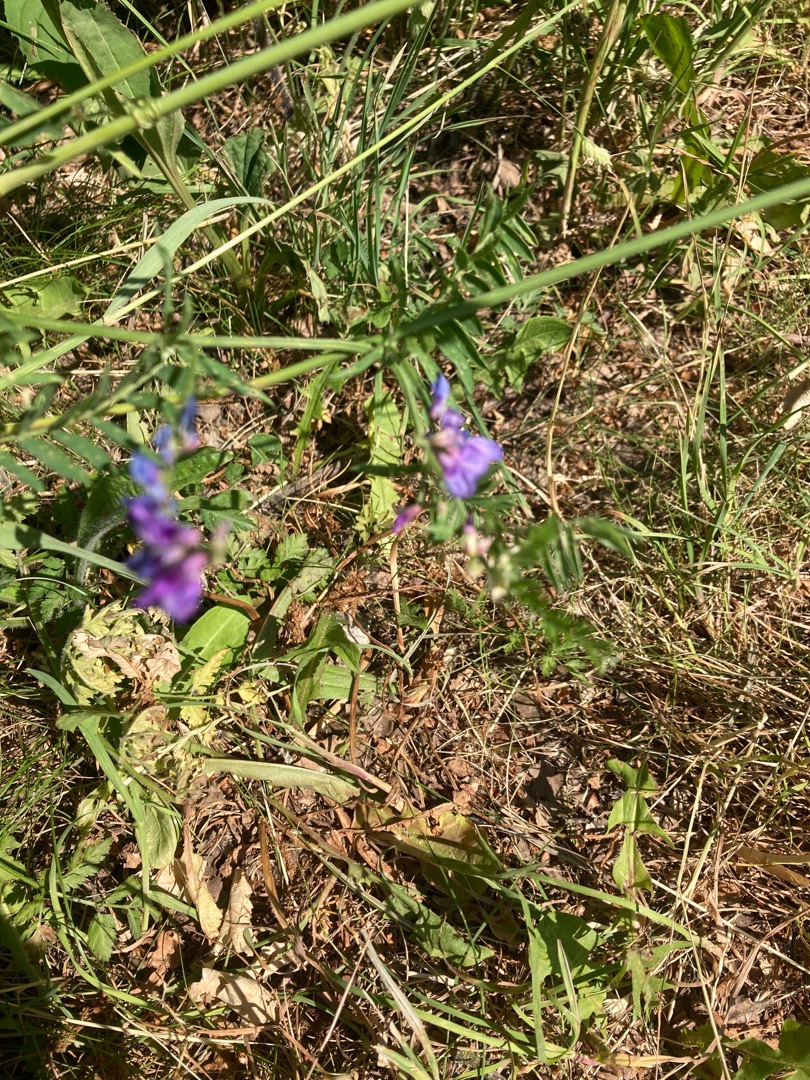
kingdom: Plantae
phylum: Tracheophyta
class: Magnoliopsida
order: Fabales
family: Fabaceae
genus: Vicia
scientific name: Vicia cracca
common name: Muse-vikke
